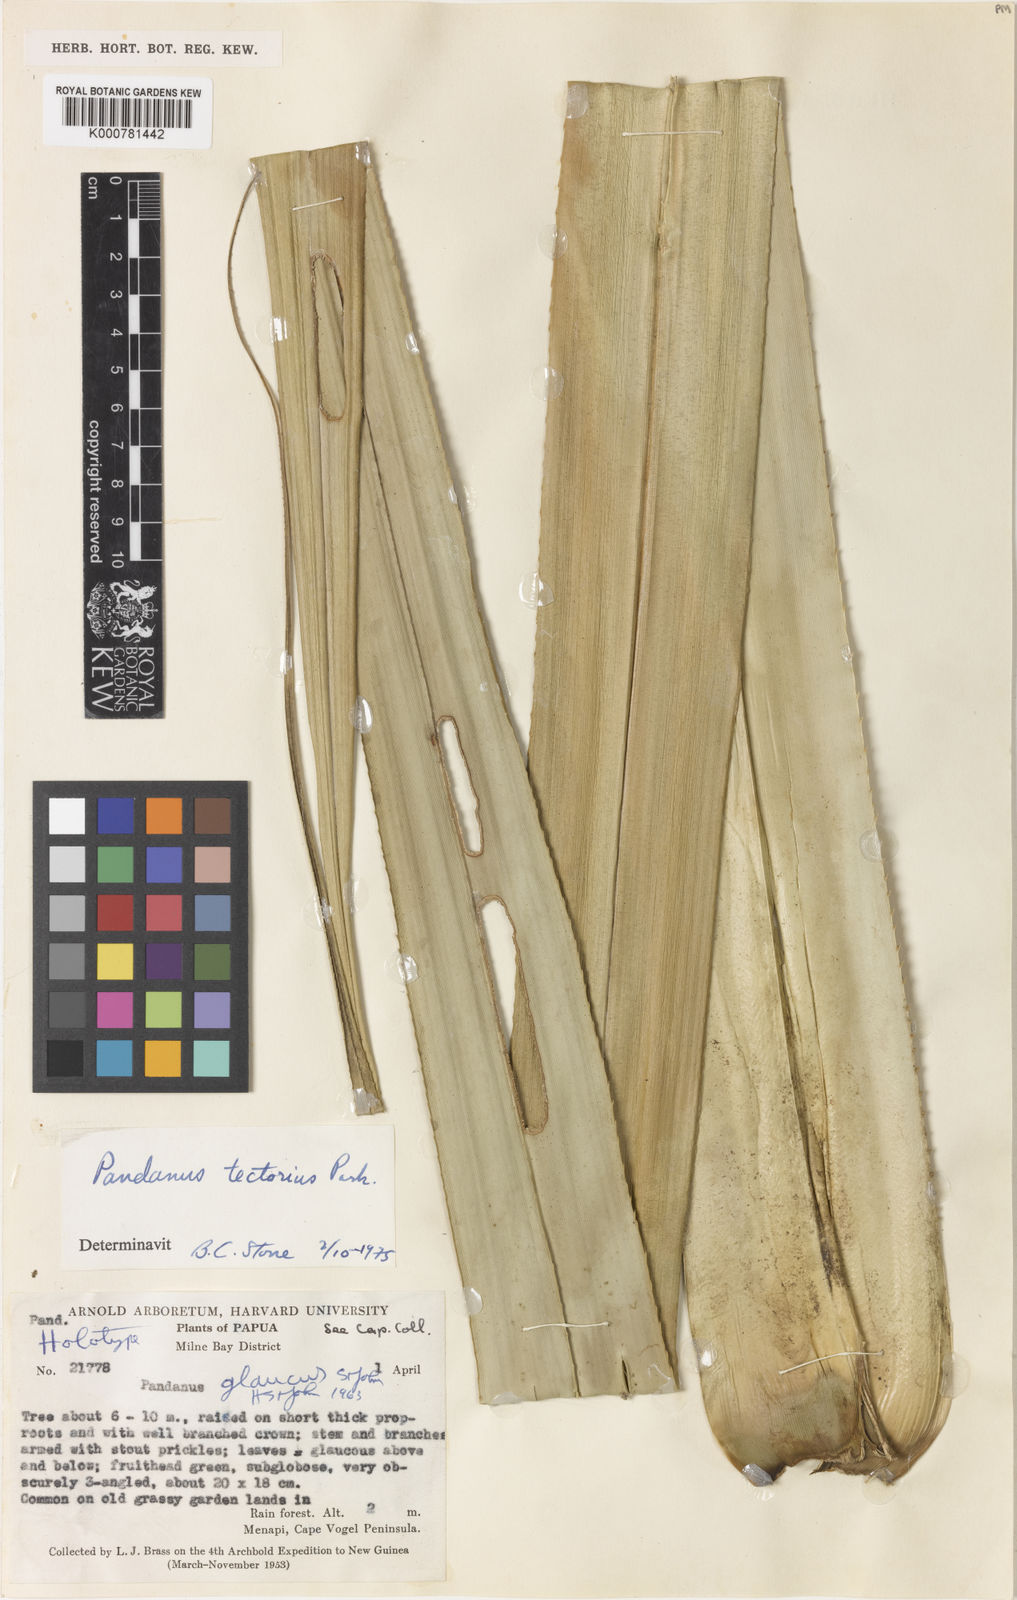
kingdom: Plantae
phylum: Tracheophyta
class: Liliopsida
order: Pandanales
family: Pandanaceae
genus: Benstonea
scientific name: Benstonea affinis
